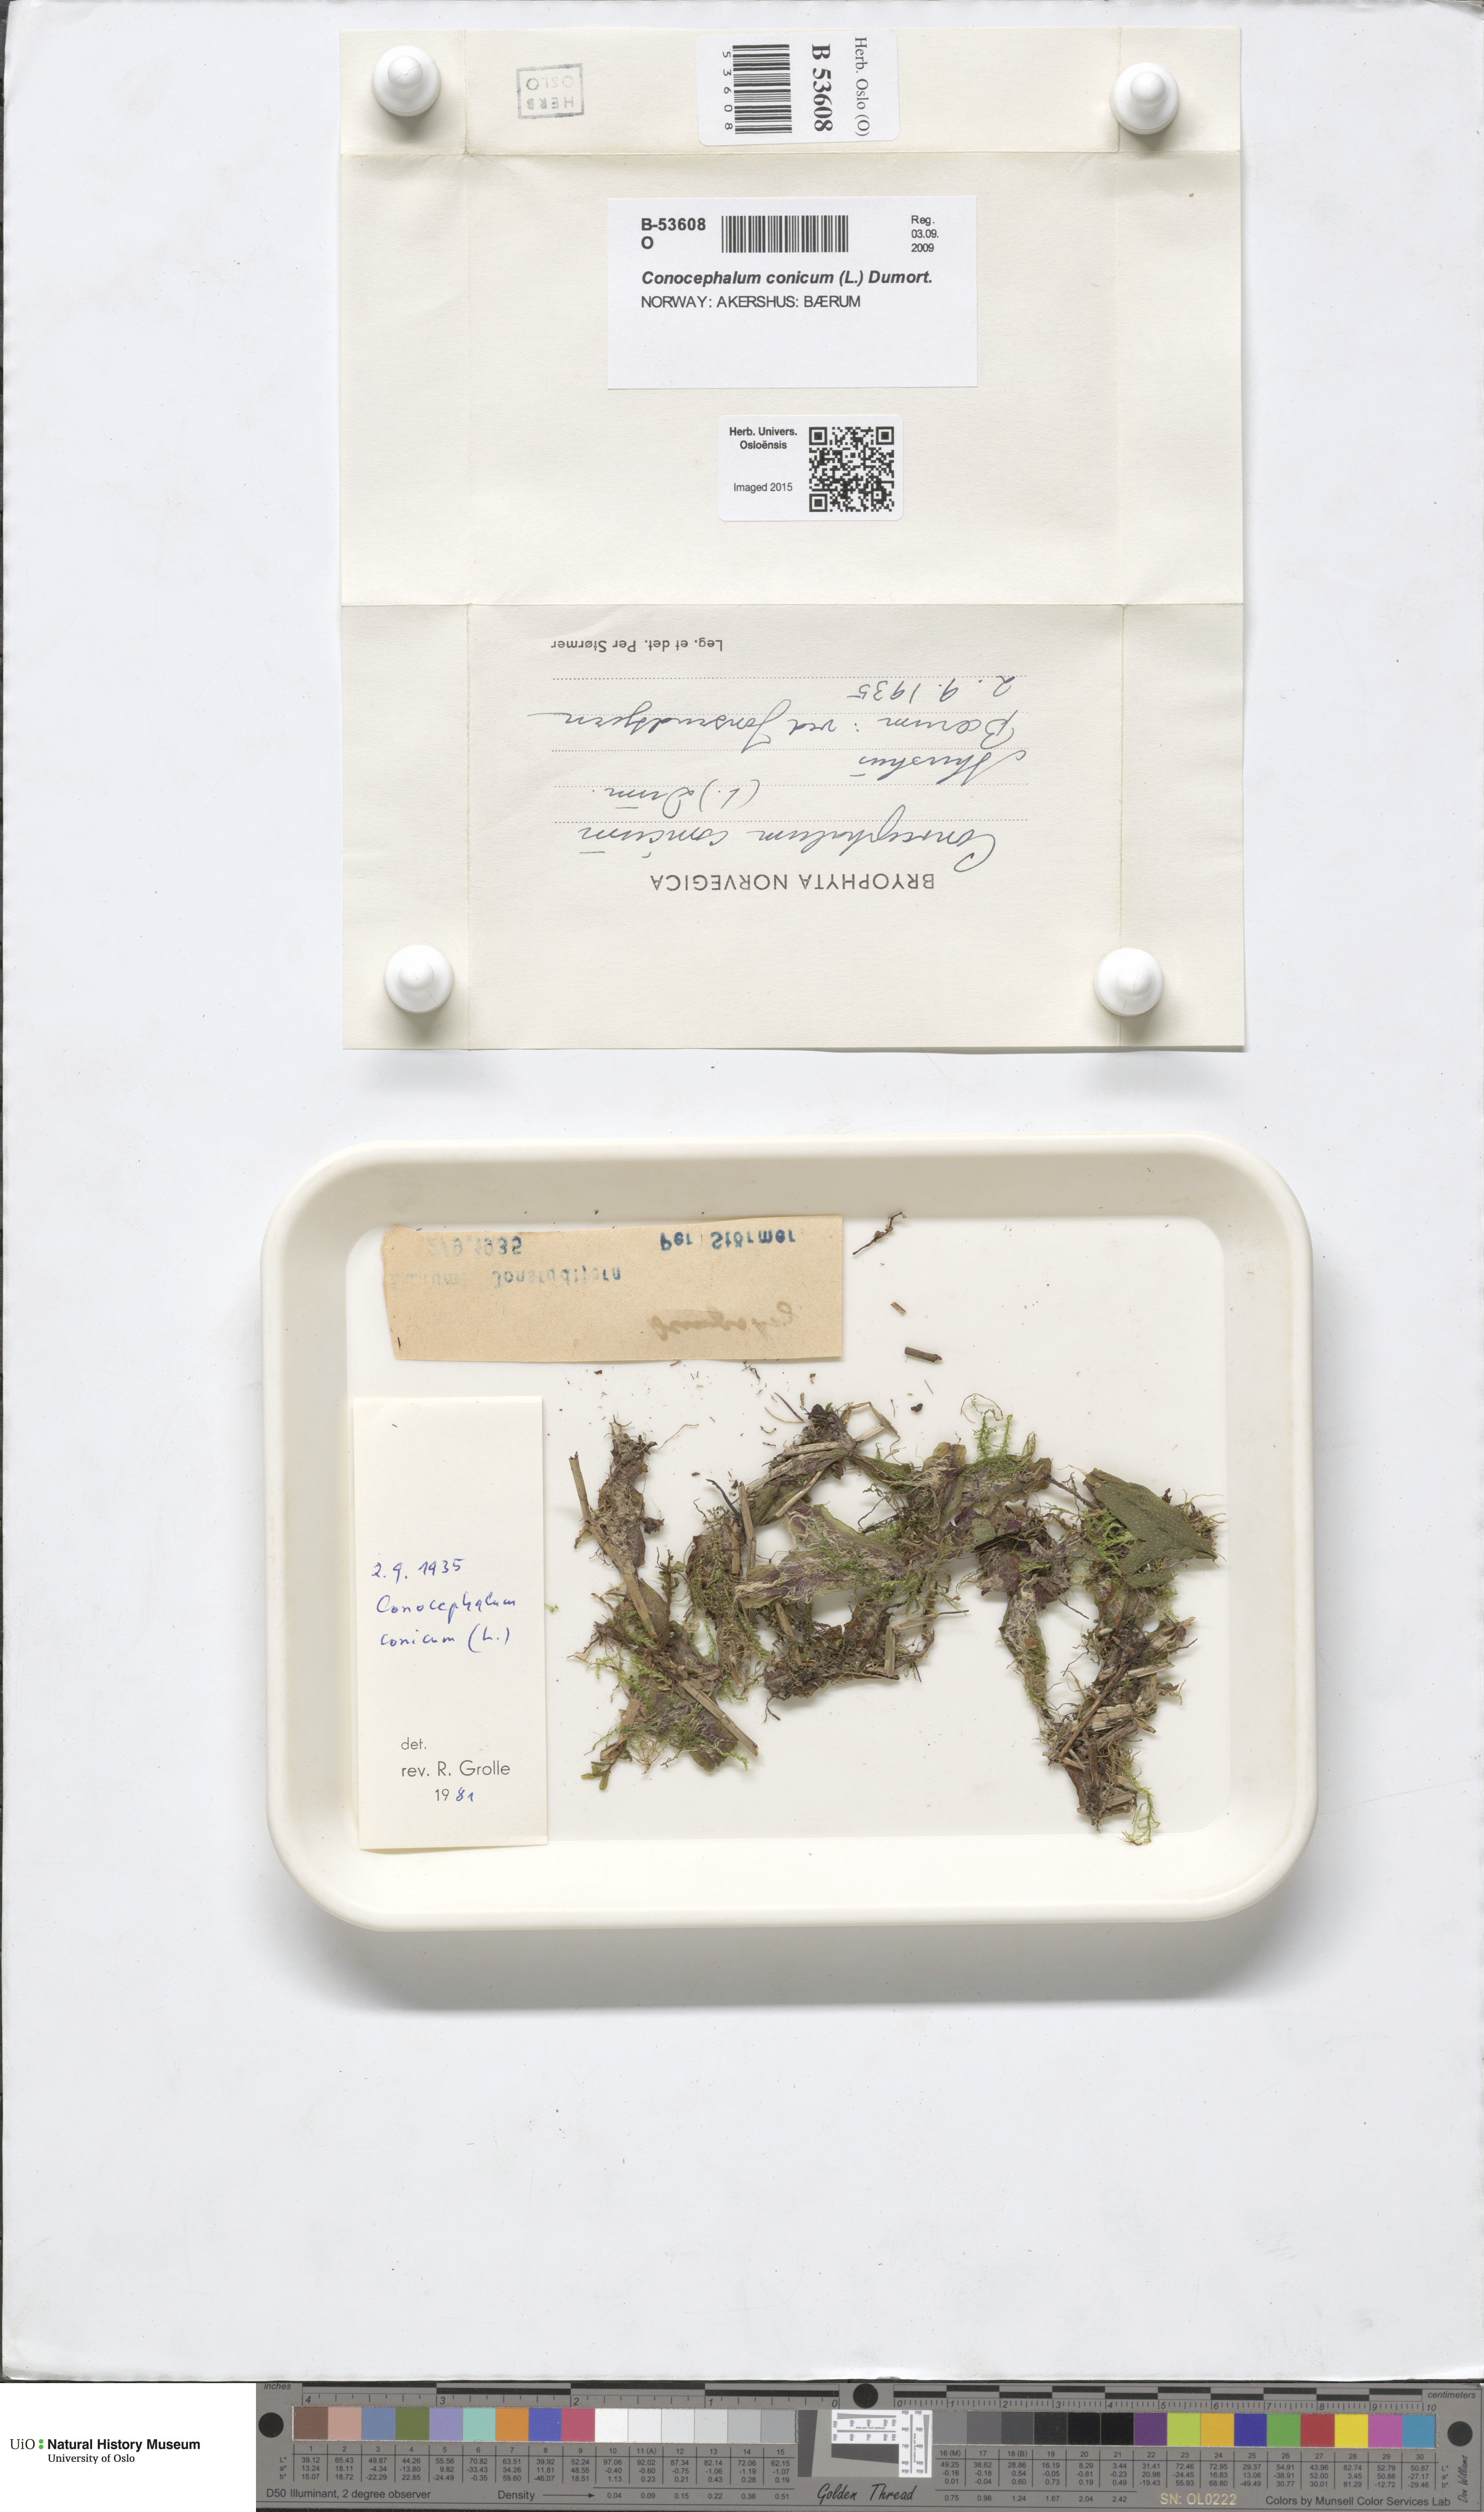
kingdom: Plantae
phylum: Marchantiophyta
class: Marchantiopsida
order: Marchantiales
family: Conocephalaceae
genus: Conocephalum
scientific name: Conocephalum conicum
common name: Great scented liverwort
